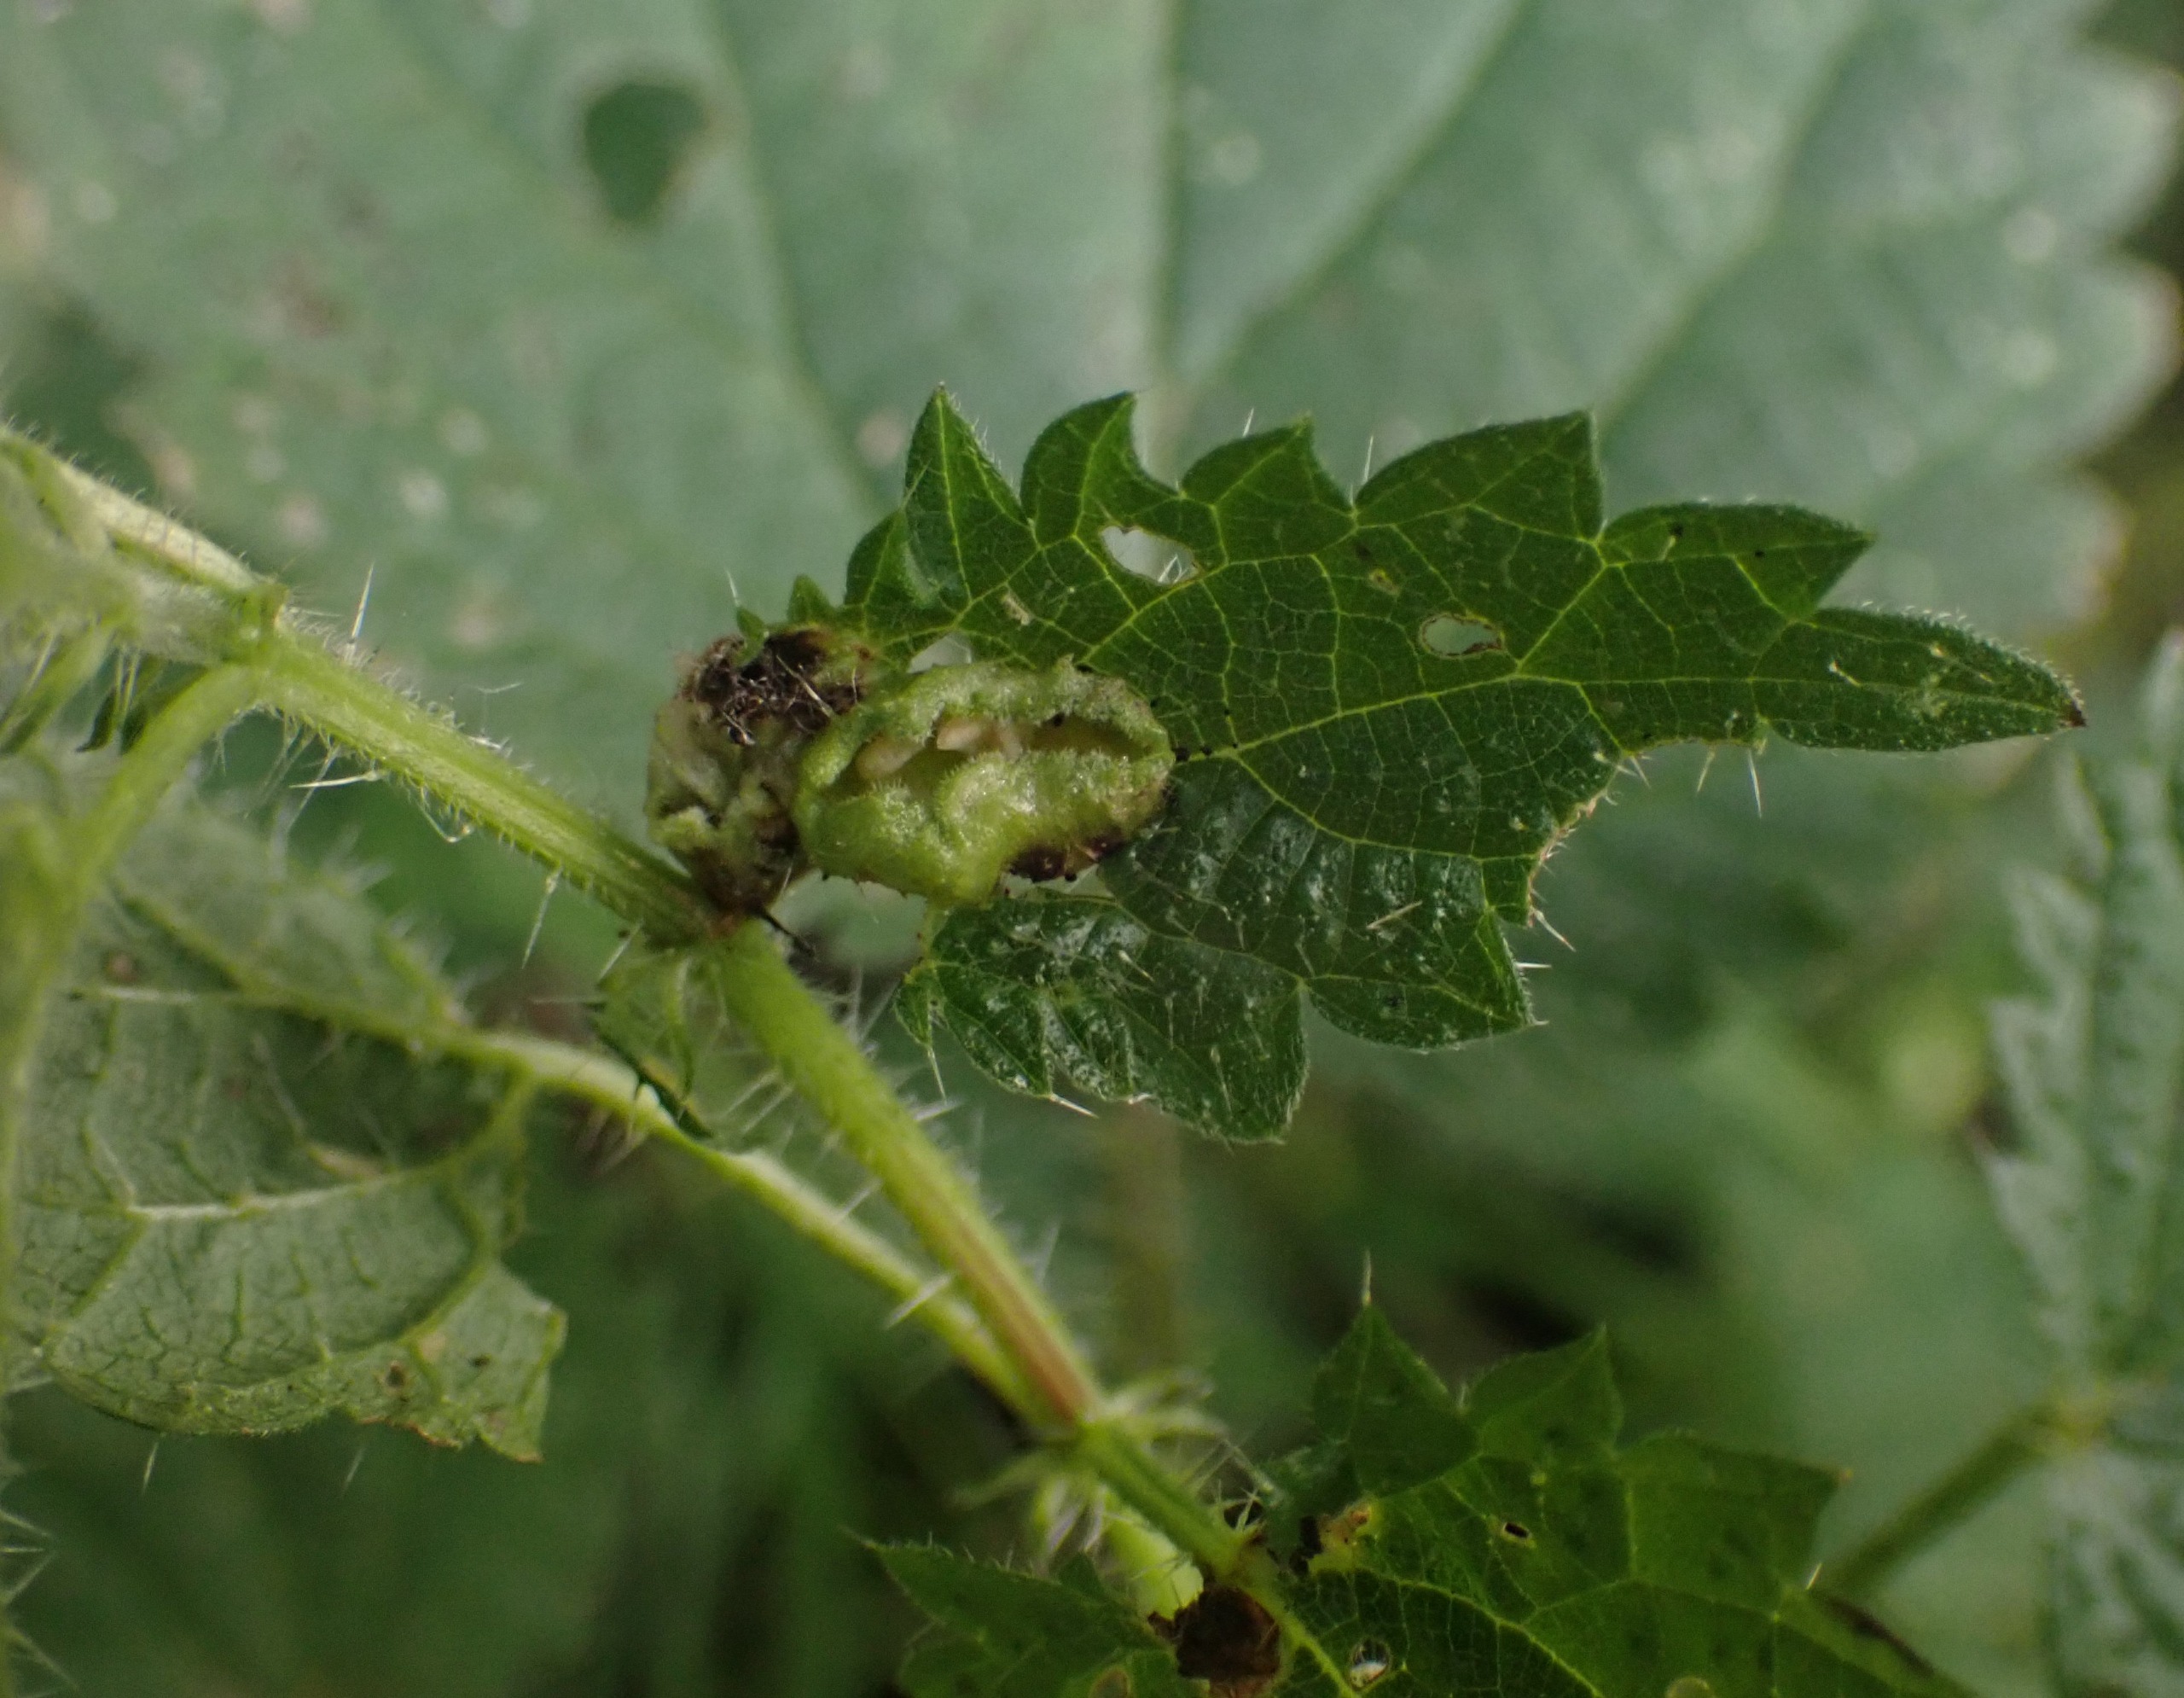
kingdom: Animalia
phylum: Arthropoda
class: Insecta
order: Diptera
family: Cecidomyiidae
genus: Dasineura
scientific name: Dasineura urticae
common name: Nældepunggalmyg
